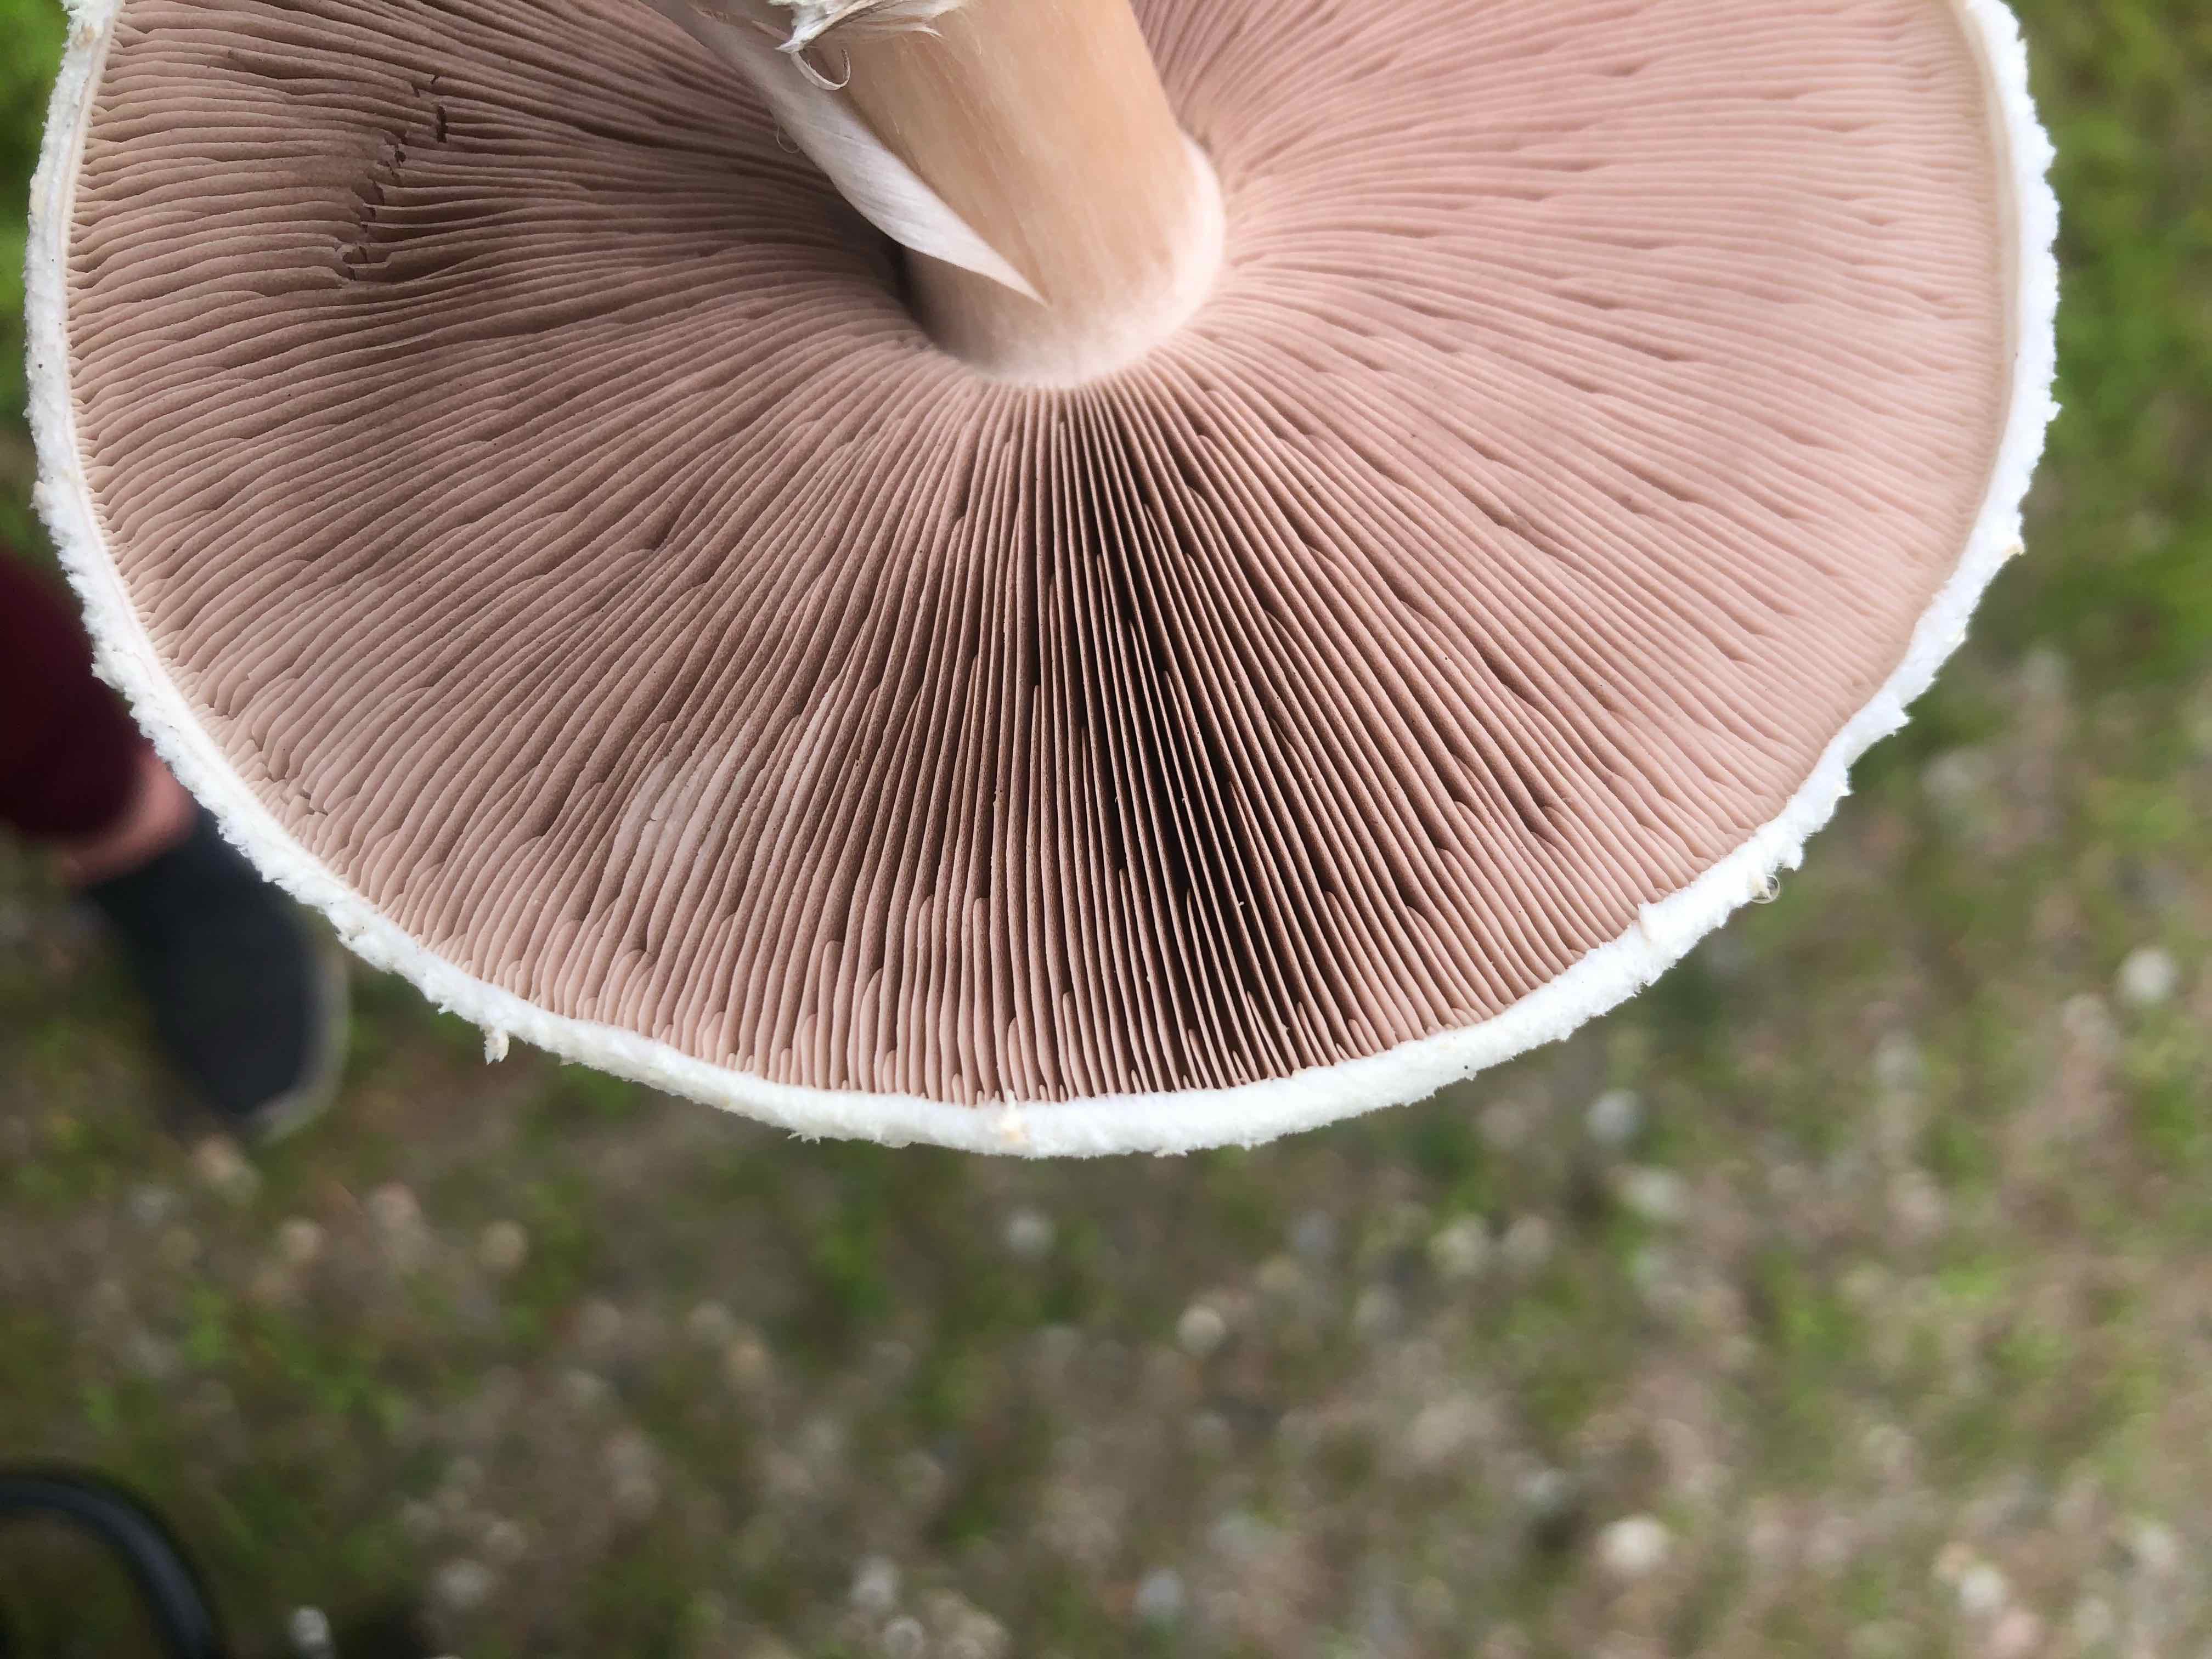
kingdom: Fungi
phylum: Basidiomycota
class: Agaricomycetes
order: Agaricales
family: Agaricaceae
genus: Agaricus
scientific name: Agaricus
